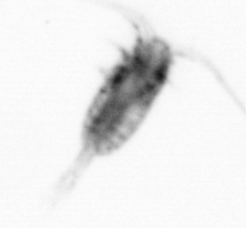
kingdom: Animalia
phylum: Arthropoda
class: Copepoda
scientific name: Copepoda
